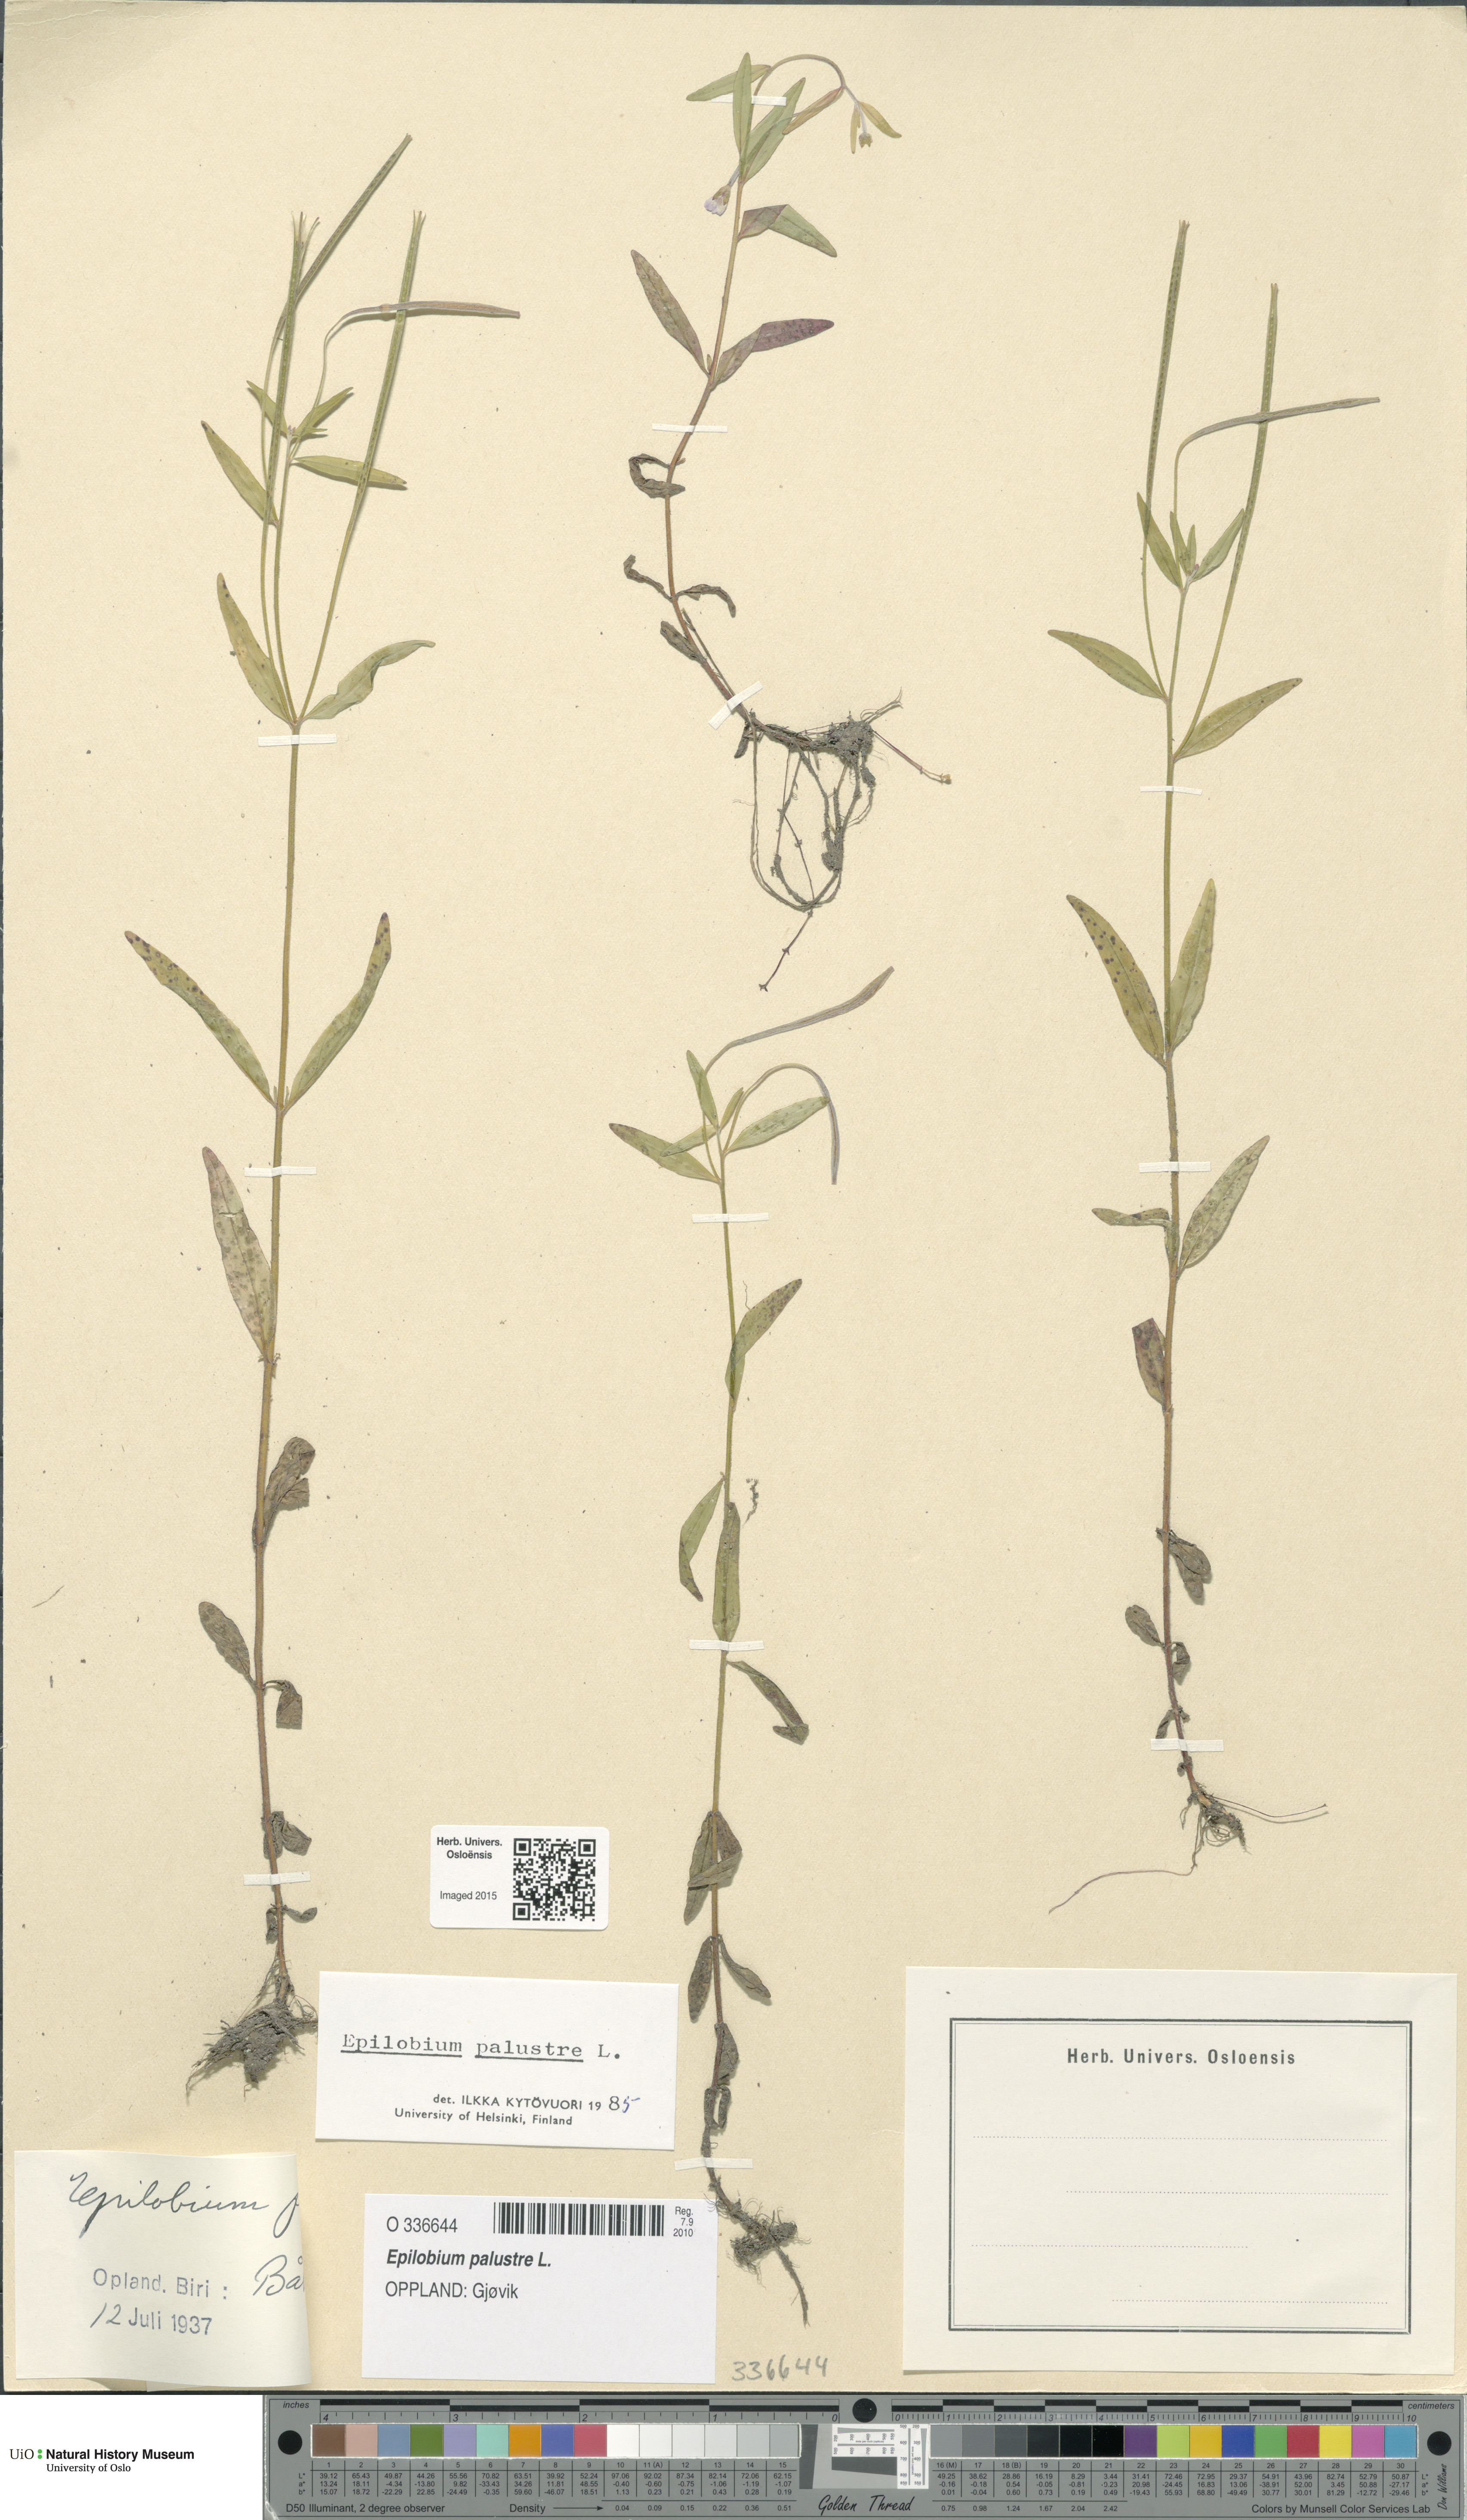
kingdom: Plantae
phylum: Tracheophyta
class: Magnoliopsida
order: Myrtales
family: Onagraceae
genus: Epilobium
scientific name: Epilobium palustre
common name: Marsh willowherb
